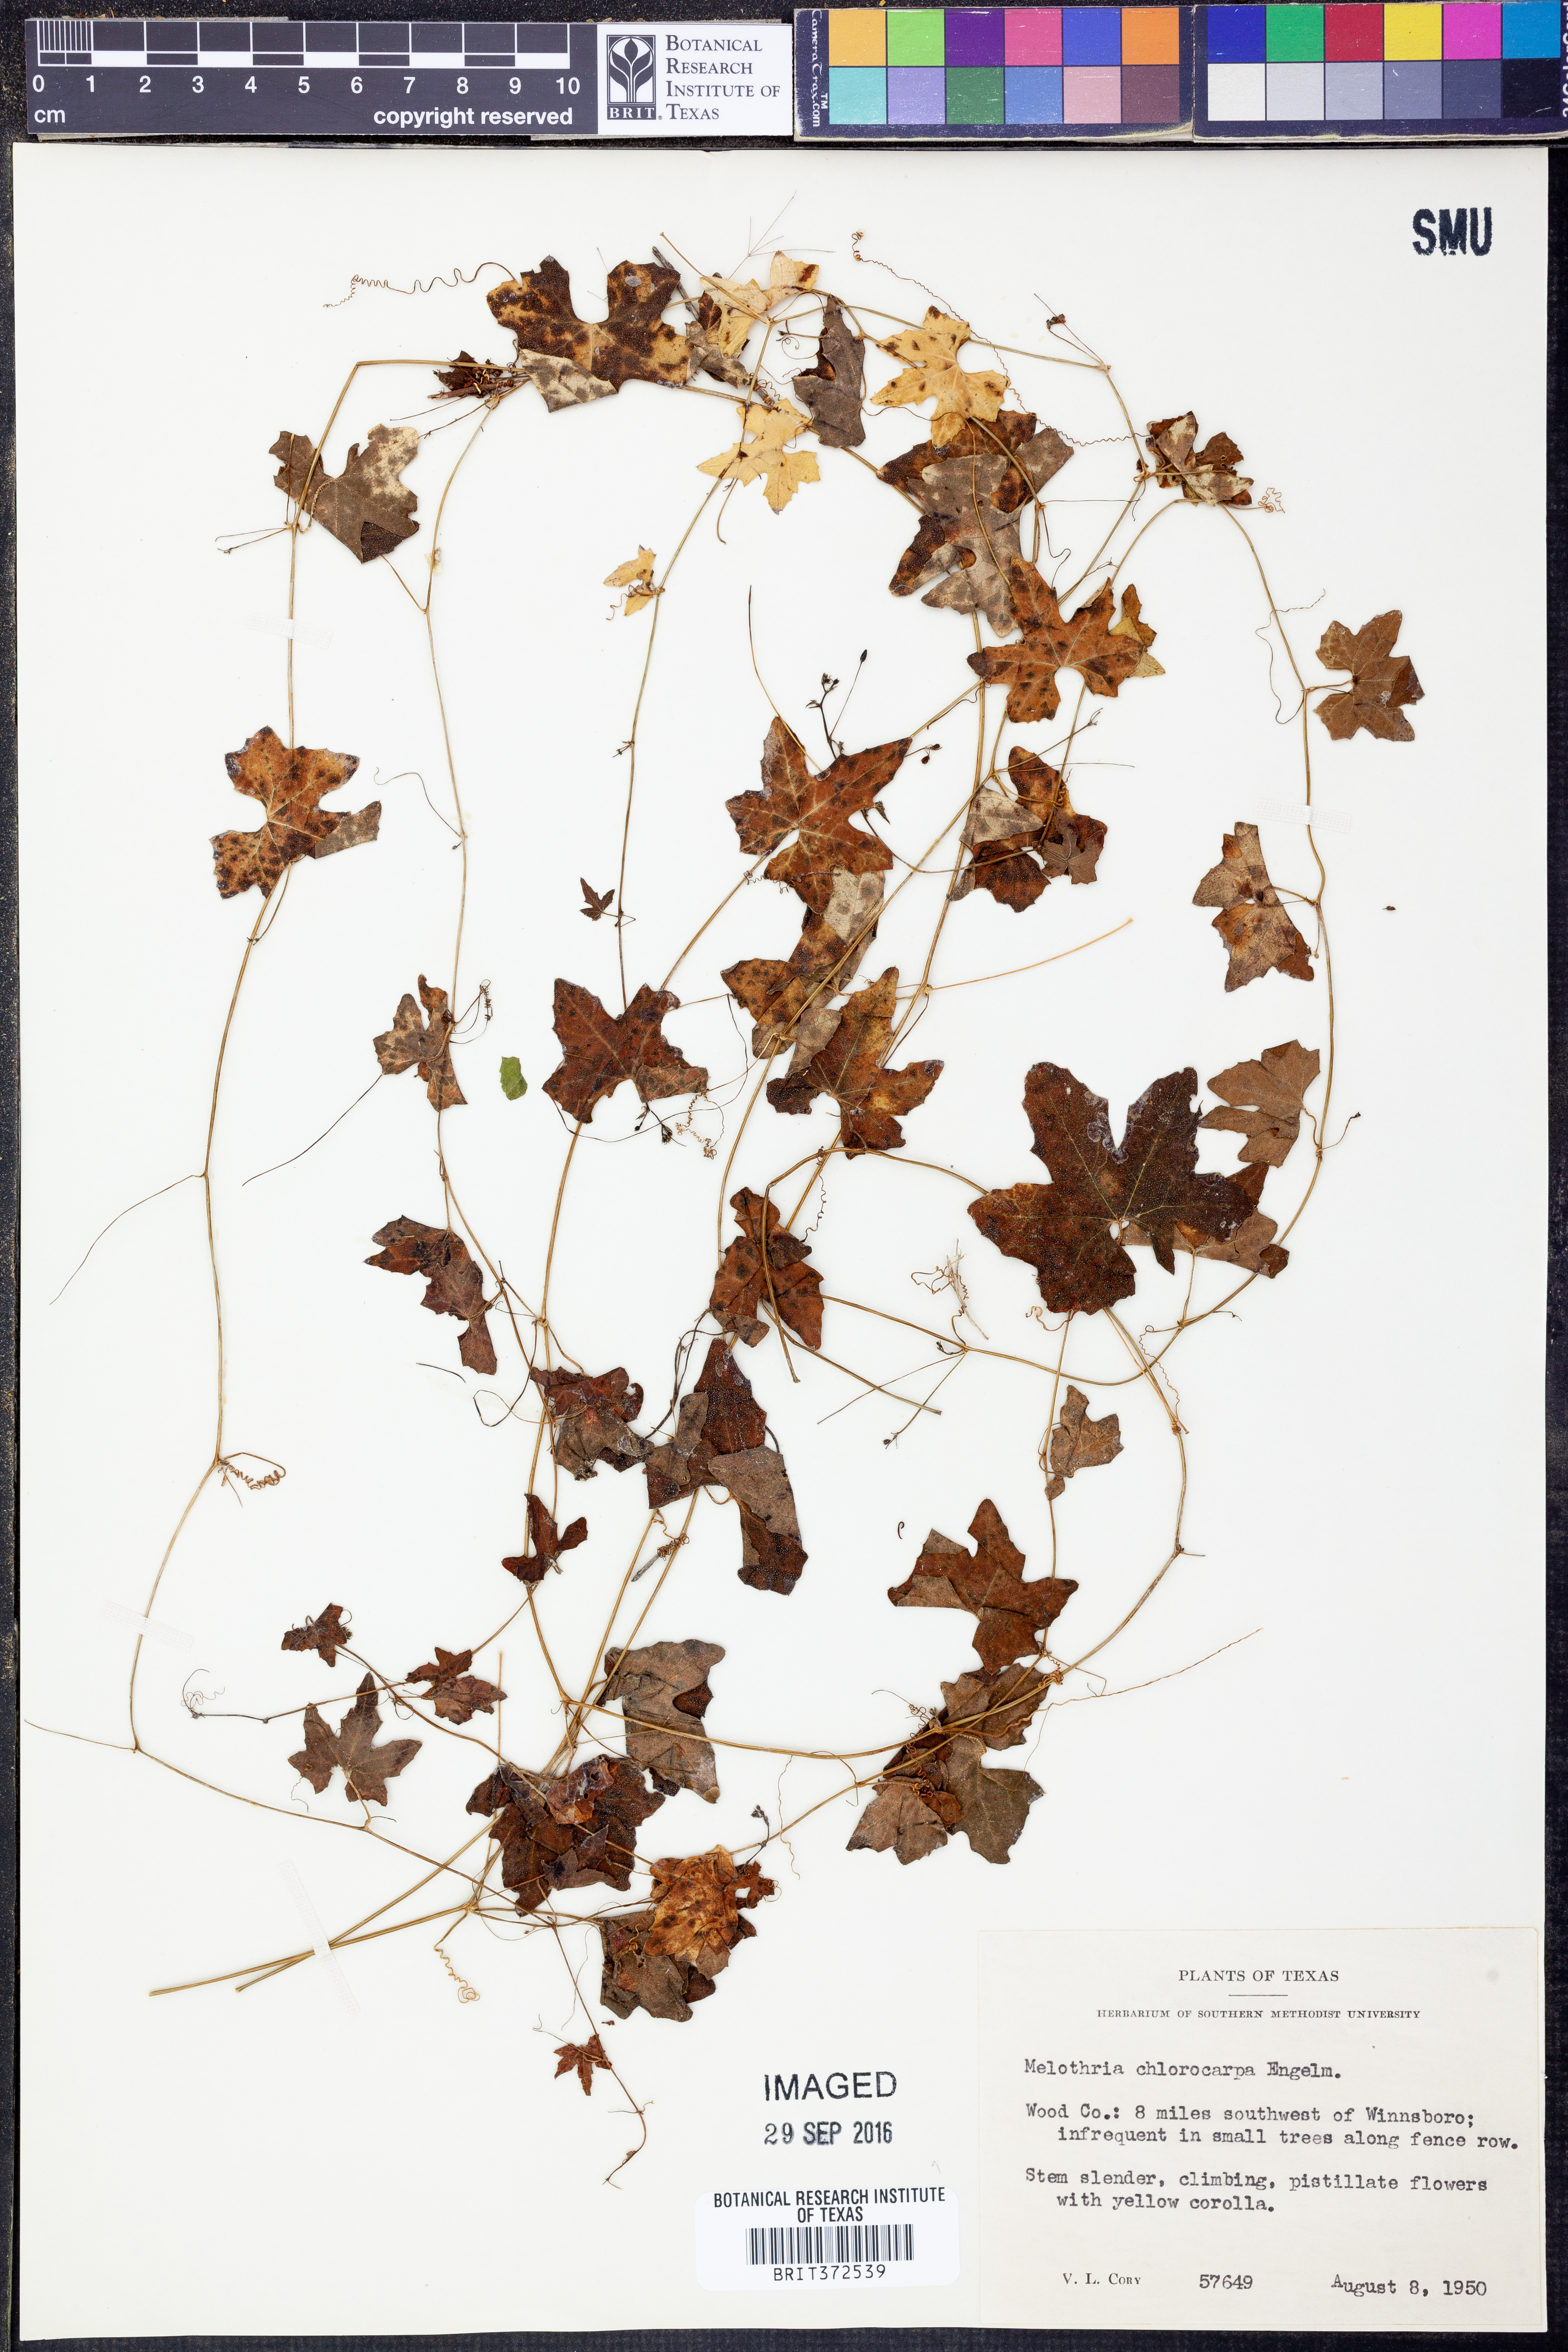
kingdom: Plantae
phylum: Tracheophyta
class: Magnoliopsida
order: Cucurbitales
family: Cucurbitaceae
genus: Melothria
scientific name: Melothria pendula
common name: Creeping-cucumber
